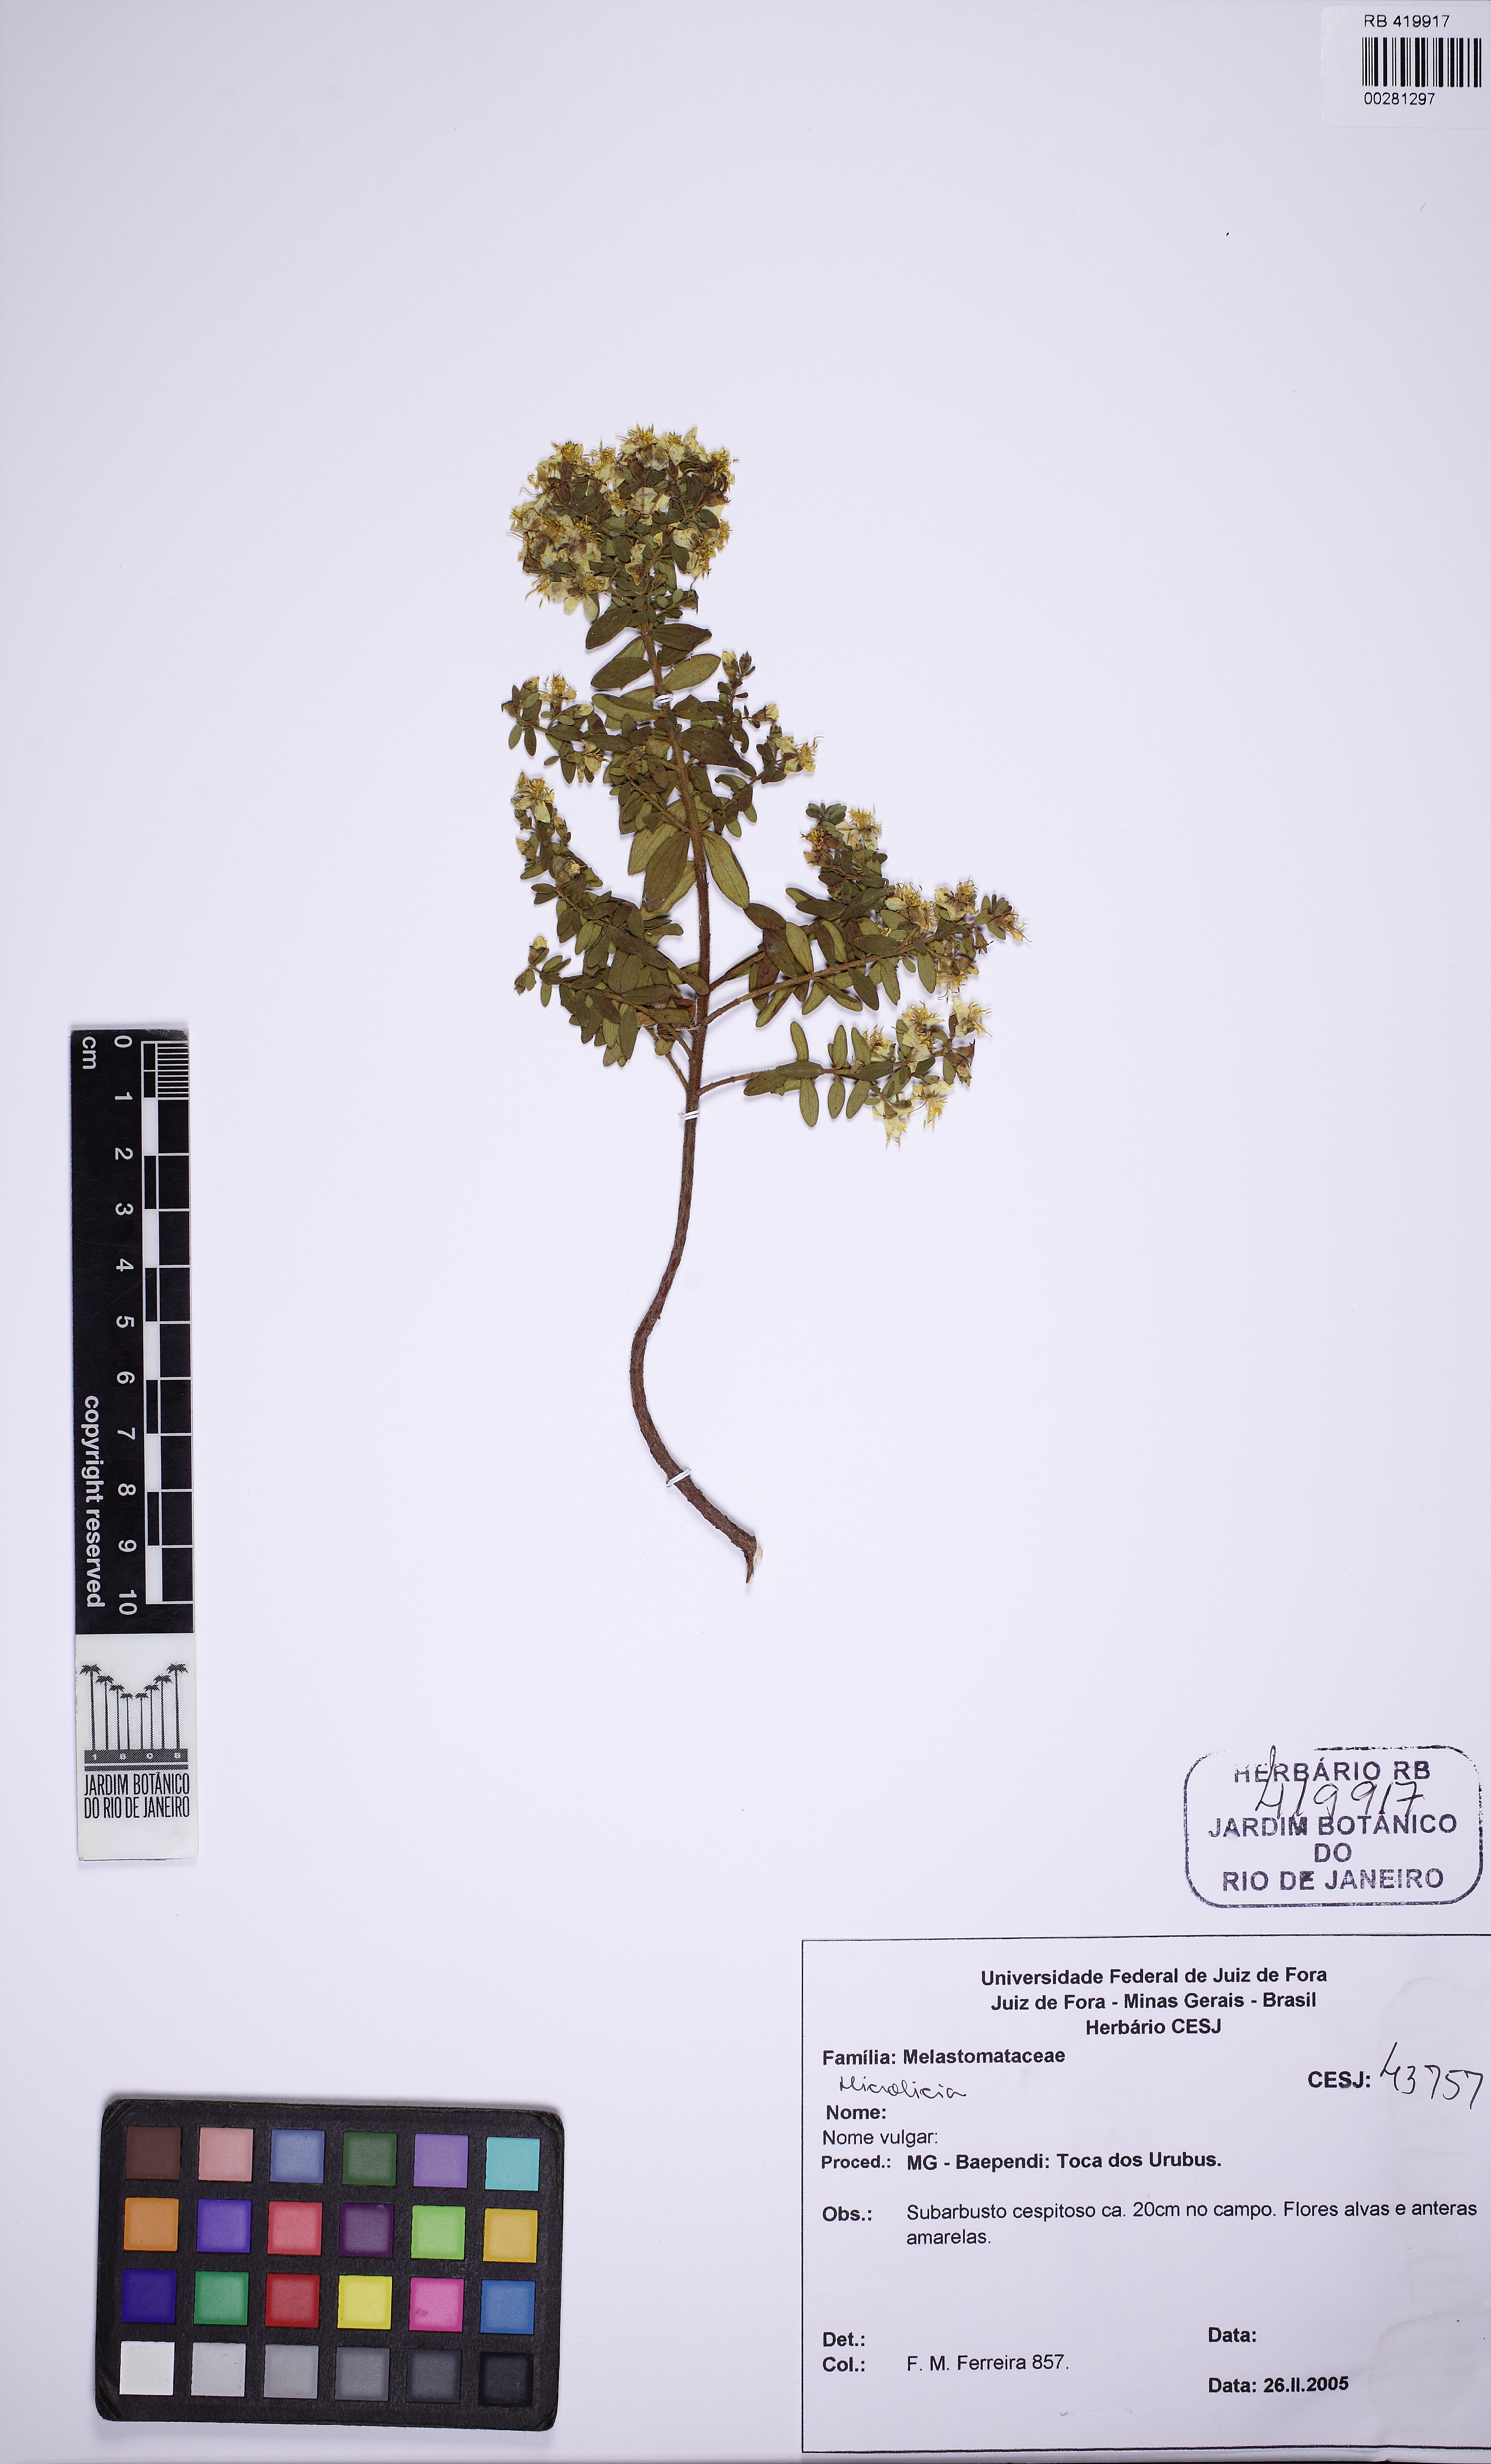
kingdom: Plantae
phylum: Tracheophyta
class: Magnoliopsida
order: Myrtales
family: Melastomataceae
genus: Microlicia
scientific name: Microlicia euphorbioides
